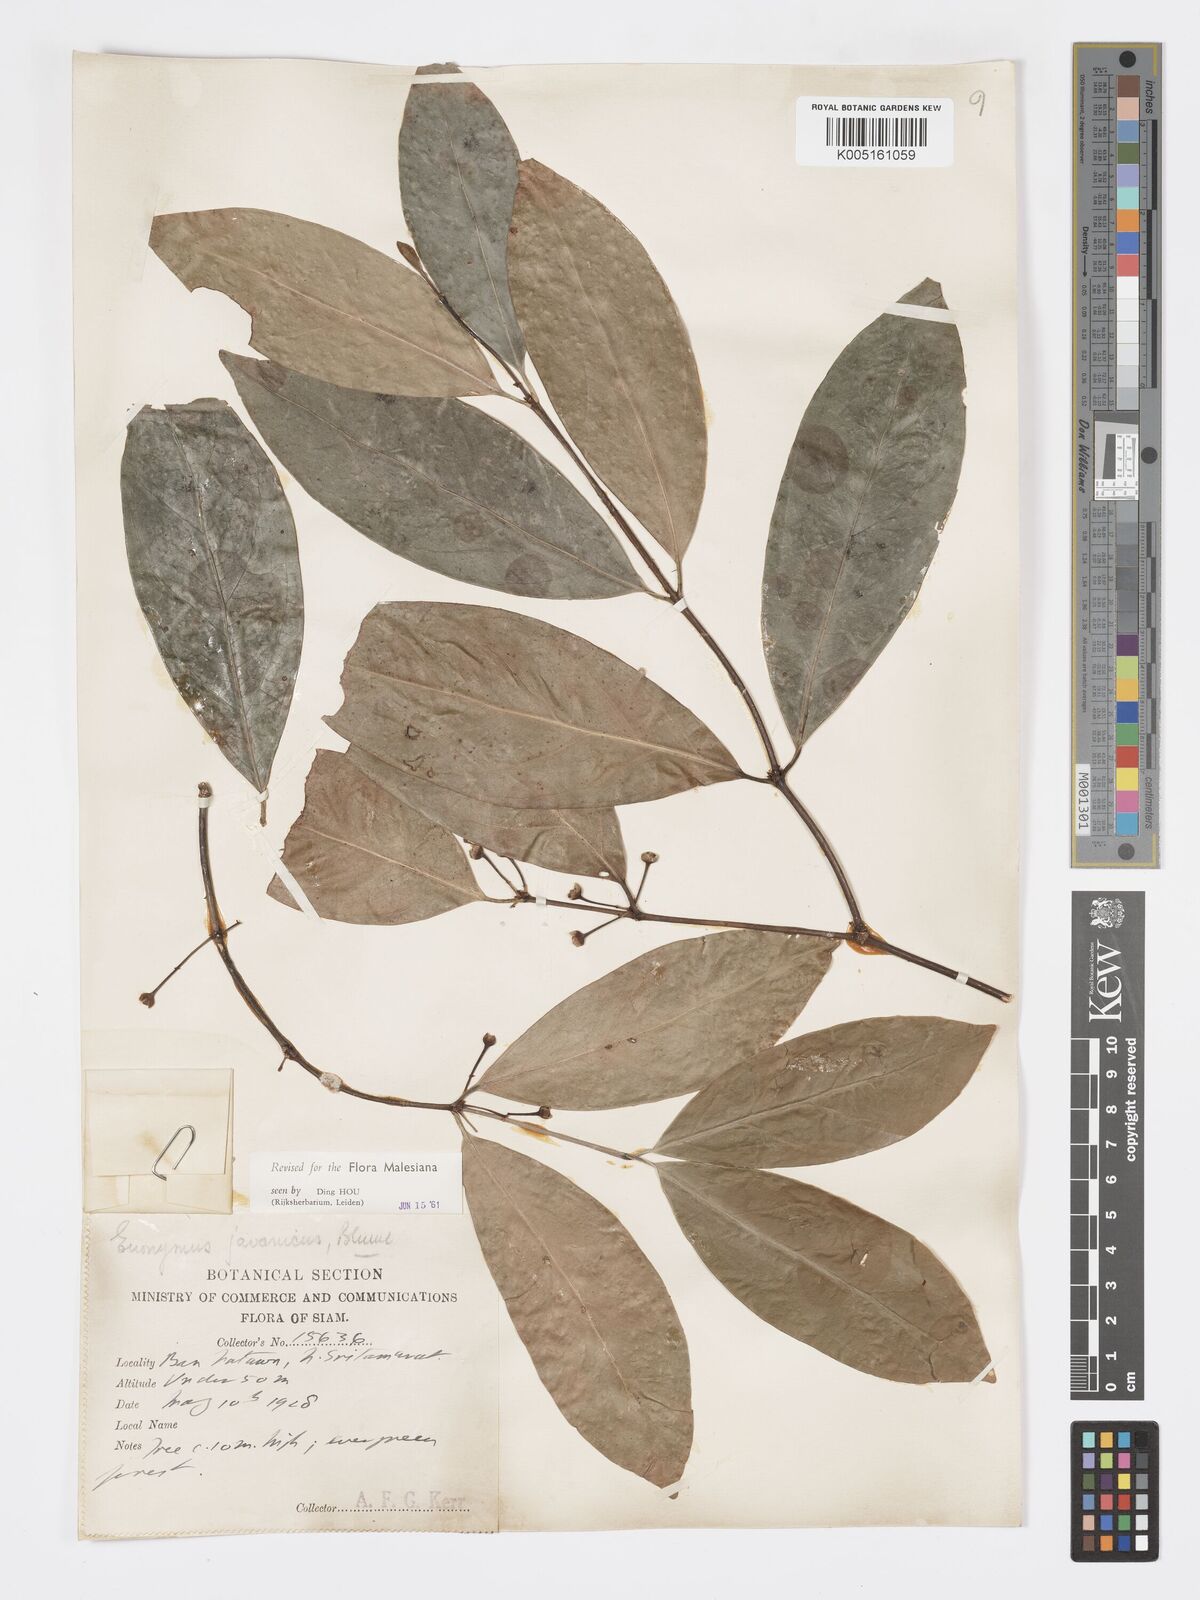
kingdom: Plantae
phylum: Tracheophyta
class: Magnoliopsida
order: Celastrales
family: Celastraceae
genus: Euonymus
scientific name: Euonymus indicus
